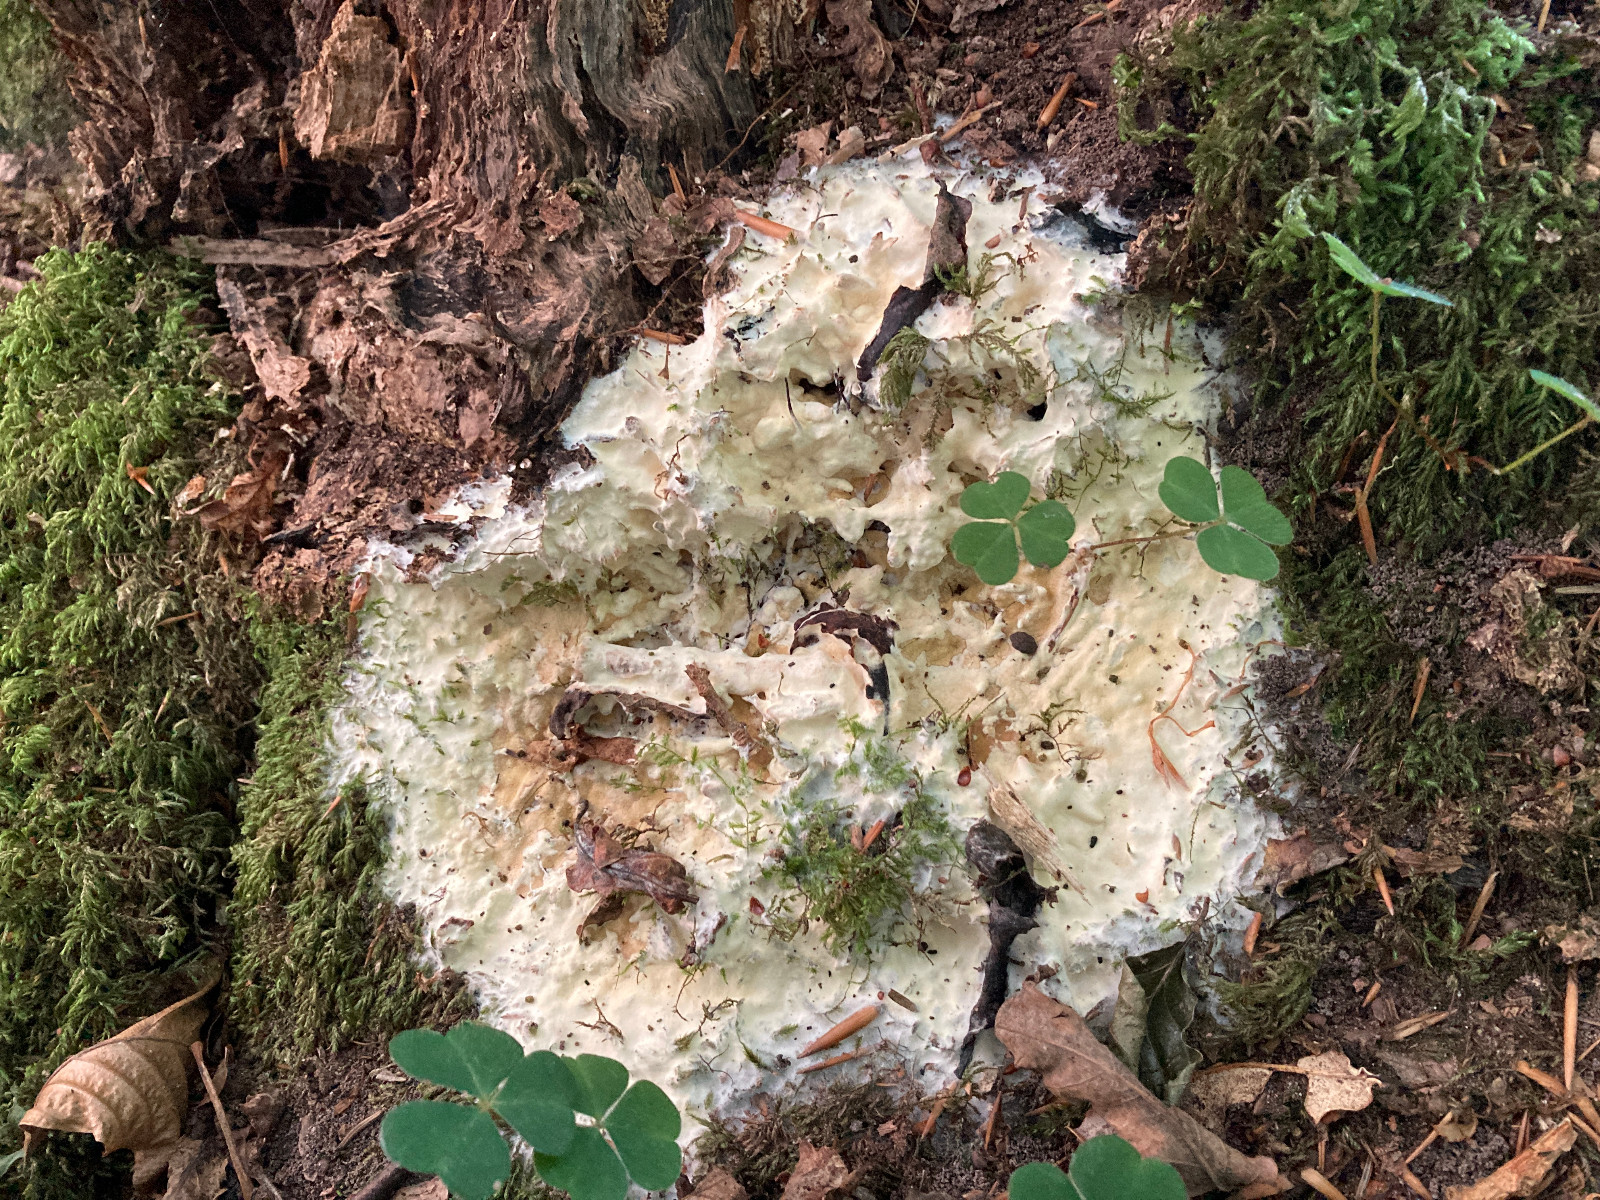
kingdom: Fungi
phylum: Ascomycota
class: Sordariomycetes
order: Hypocreales
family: Hypocreaceae
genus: Trichoderma
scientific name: Trichoderma citrinum
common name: udbredt kødkerne
